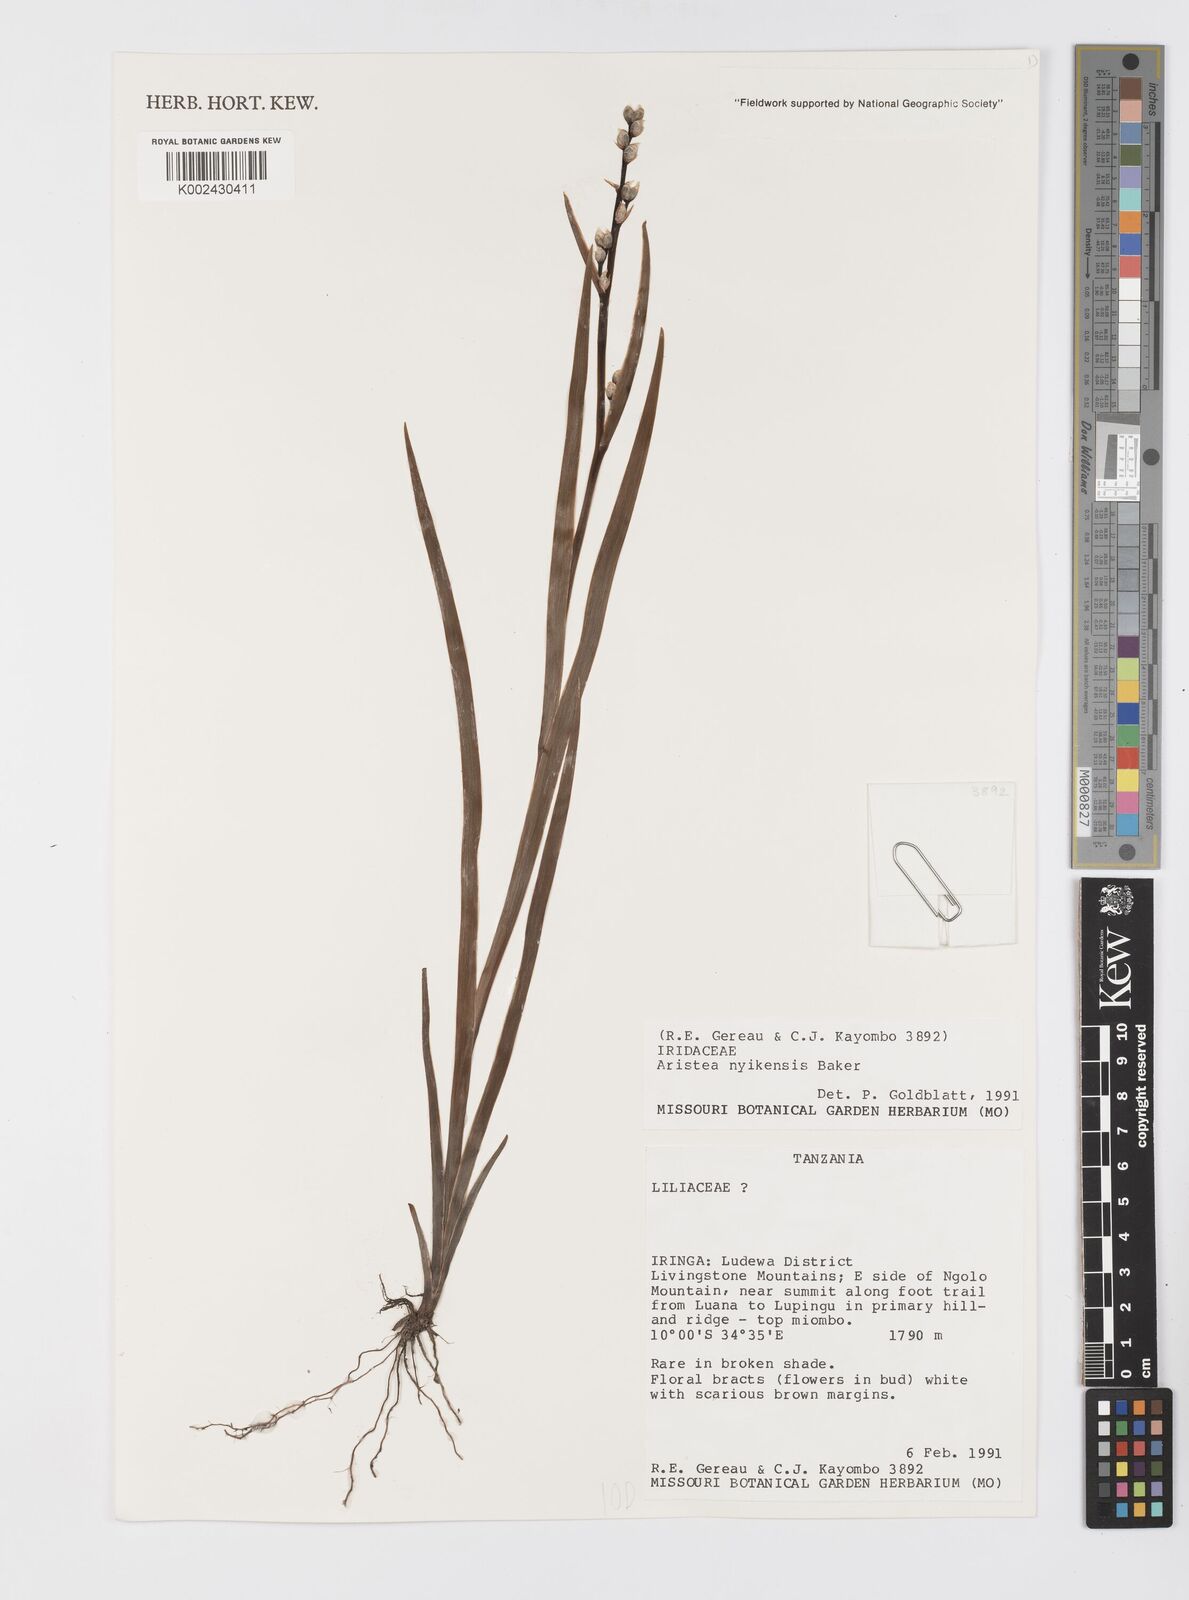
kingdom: Plantae
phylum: Tracheophyta
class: Liliopsida
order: Asparagales
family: Iridaceae
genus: Aristea
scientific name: Aristea nyikensis
